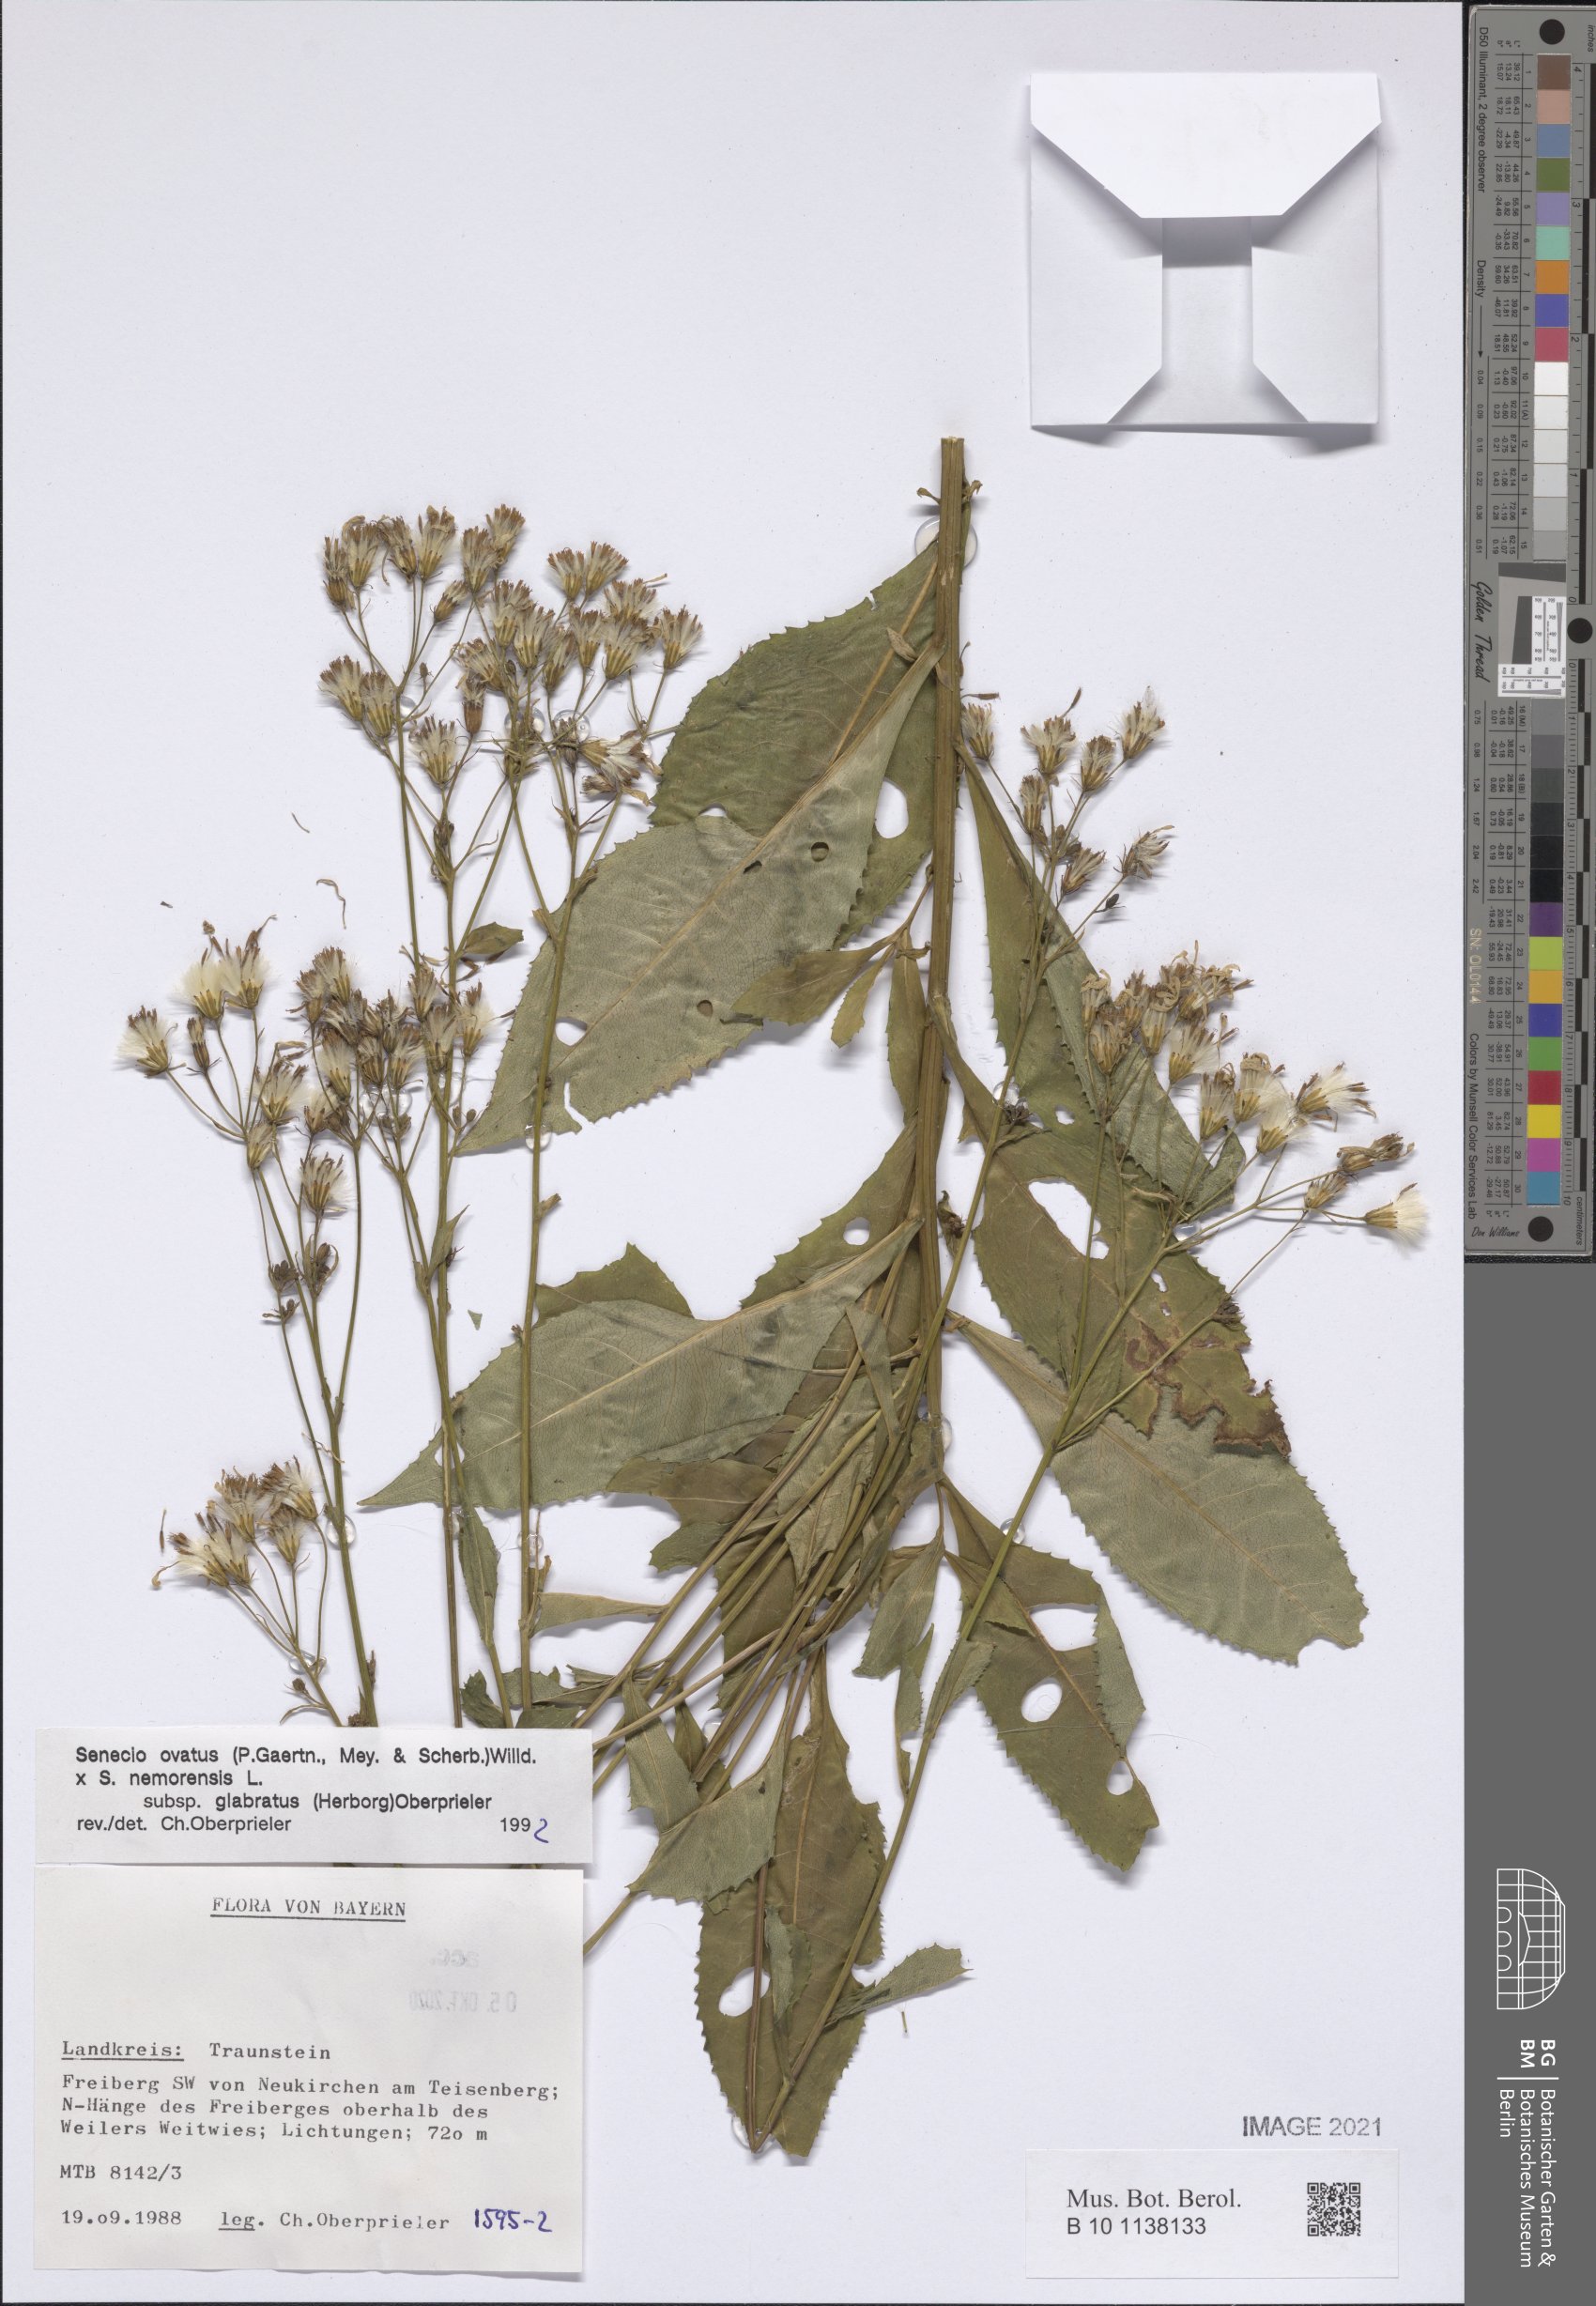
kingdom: Plantae
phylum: Tracheophyta
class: Magnoliopsida
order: Asterales
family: Asteraceae
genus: Senecio
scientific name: Senecio ovatus
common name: Wood ragwort
